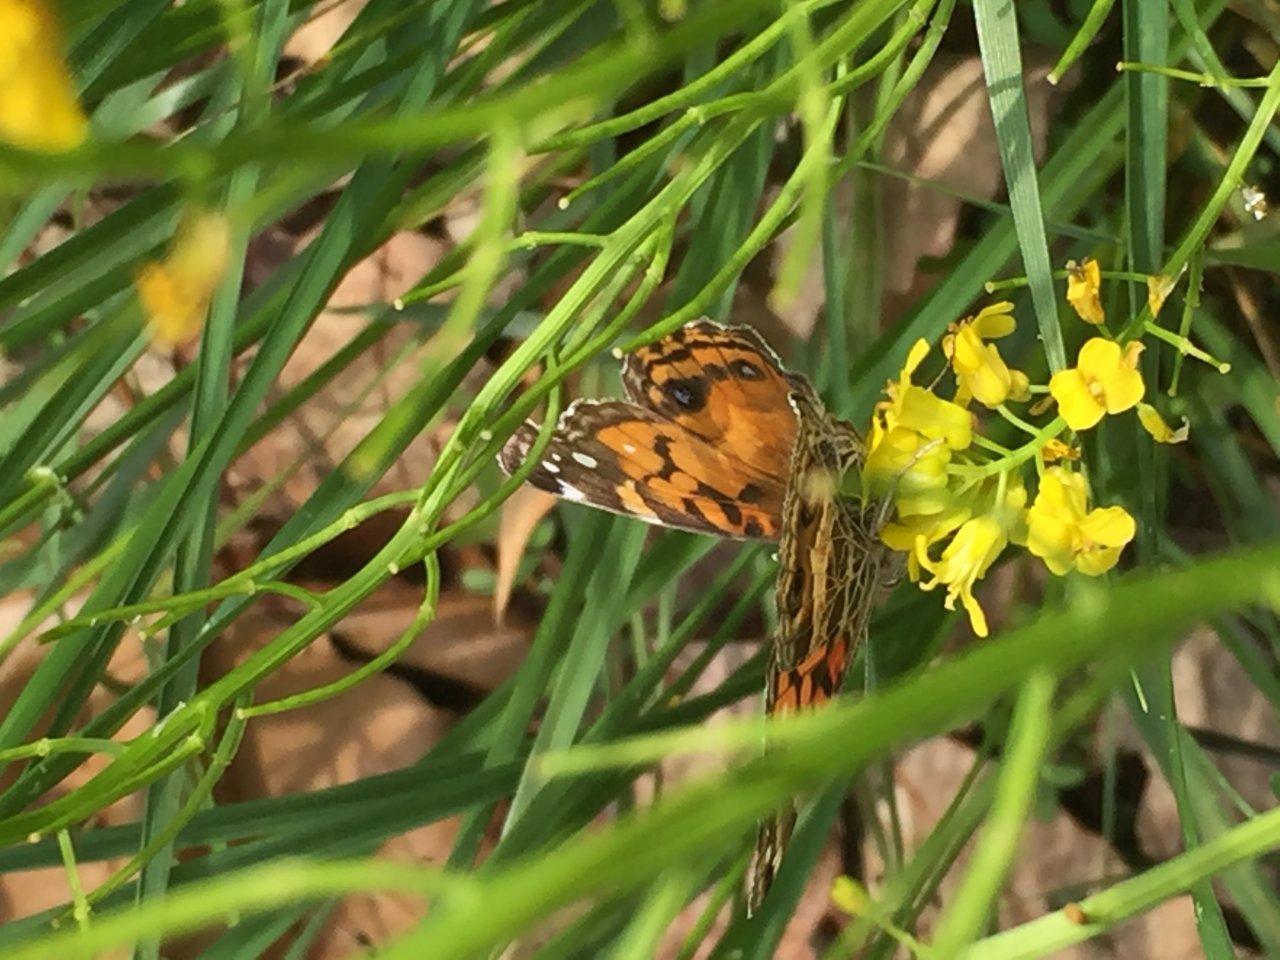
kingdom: Animalia
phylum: Arthropoda
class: Insecta
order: Lepidoptera
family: Nymphalidae
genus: Vanessa
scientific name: Vanessa virginiensis
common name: American Lady
